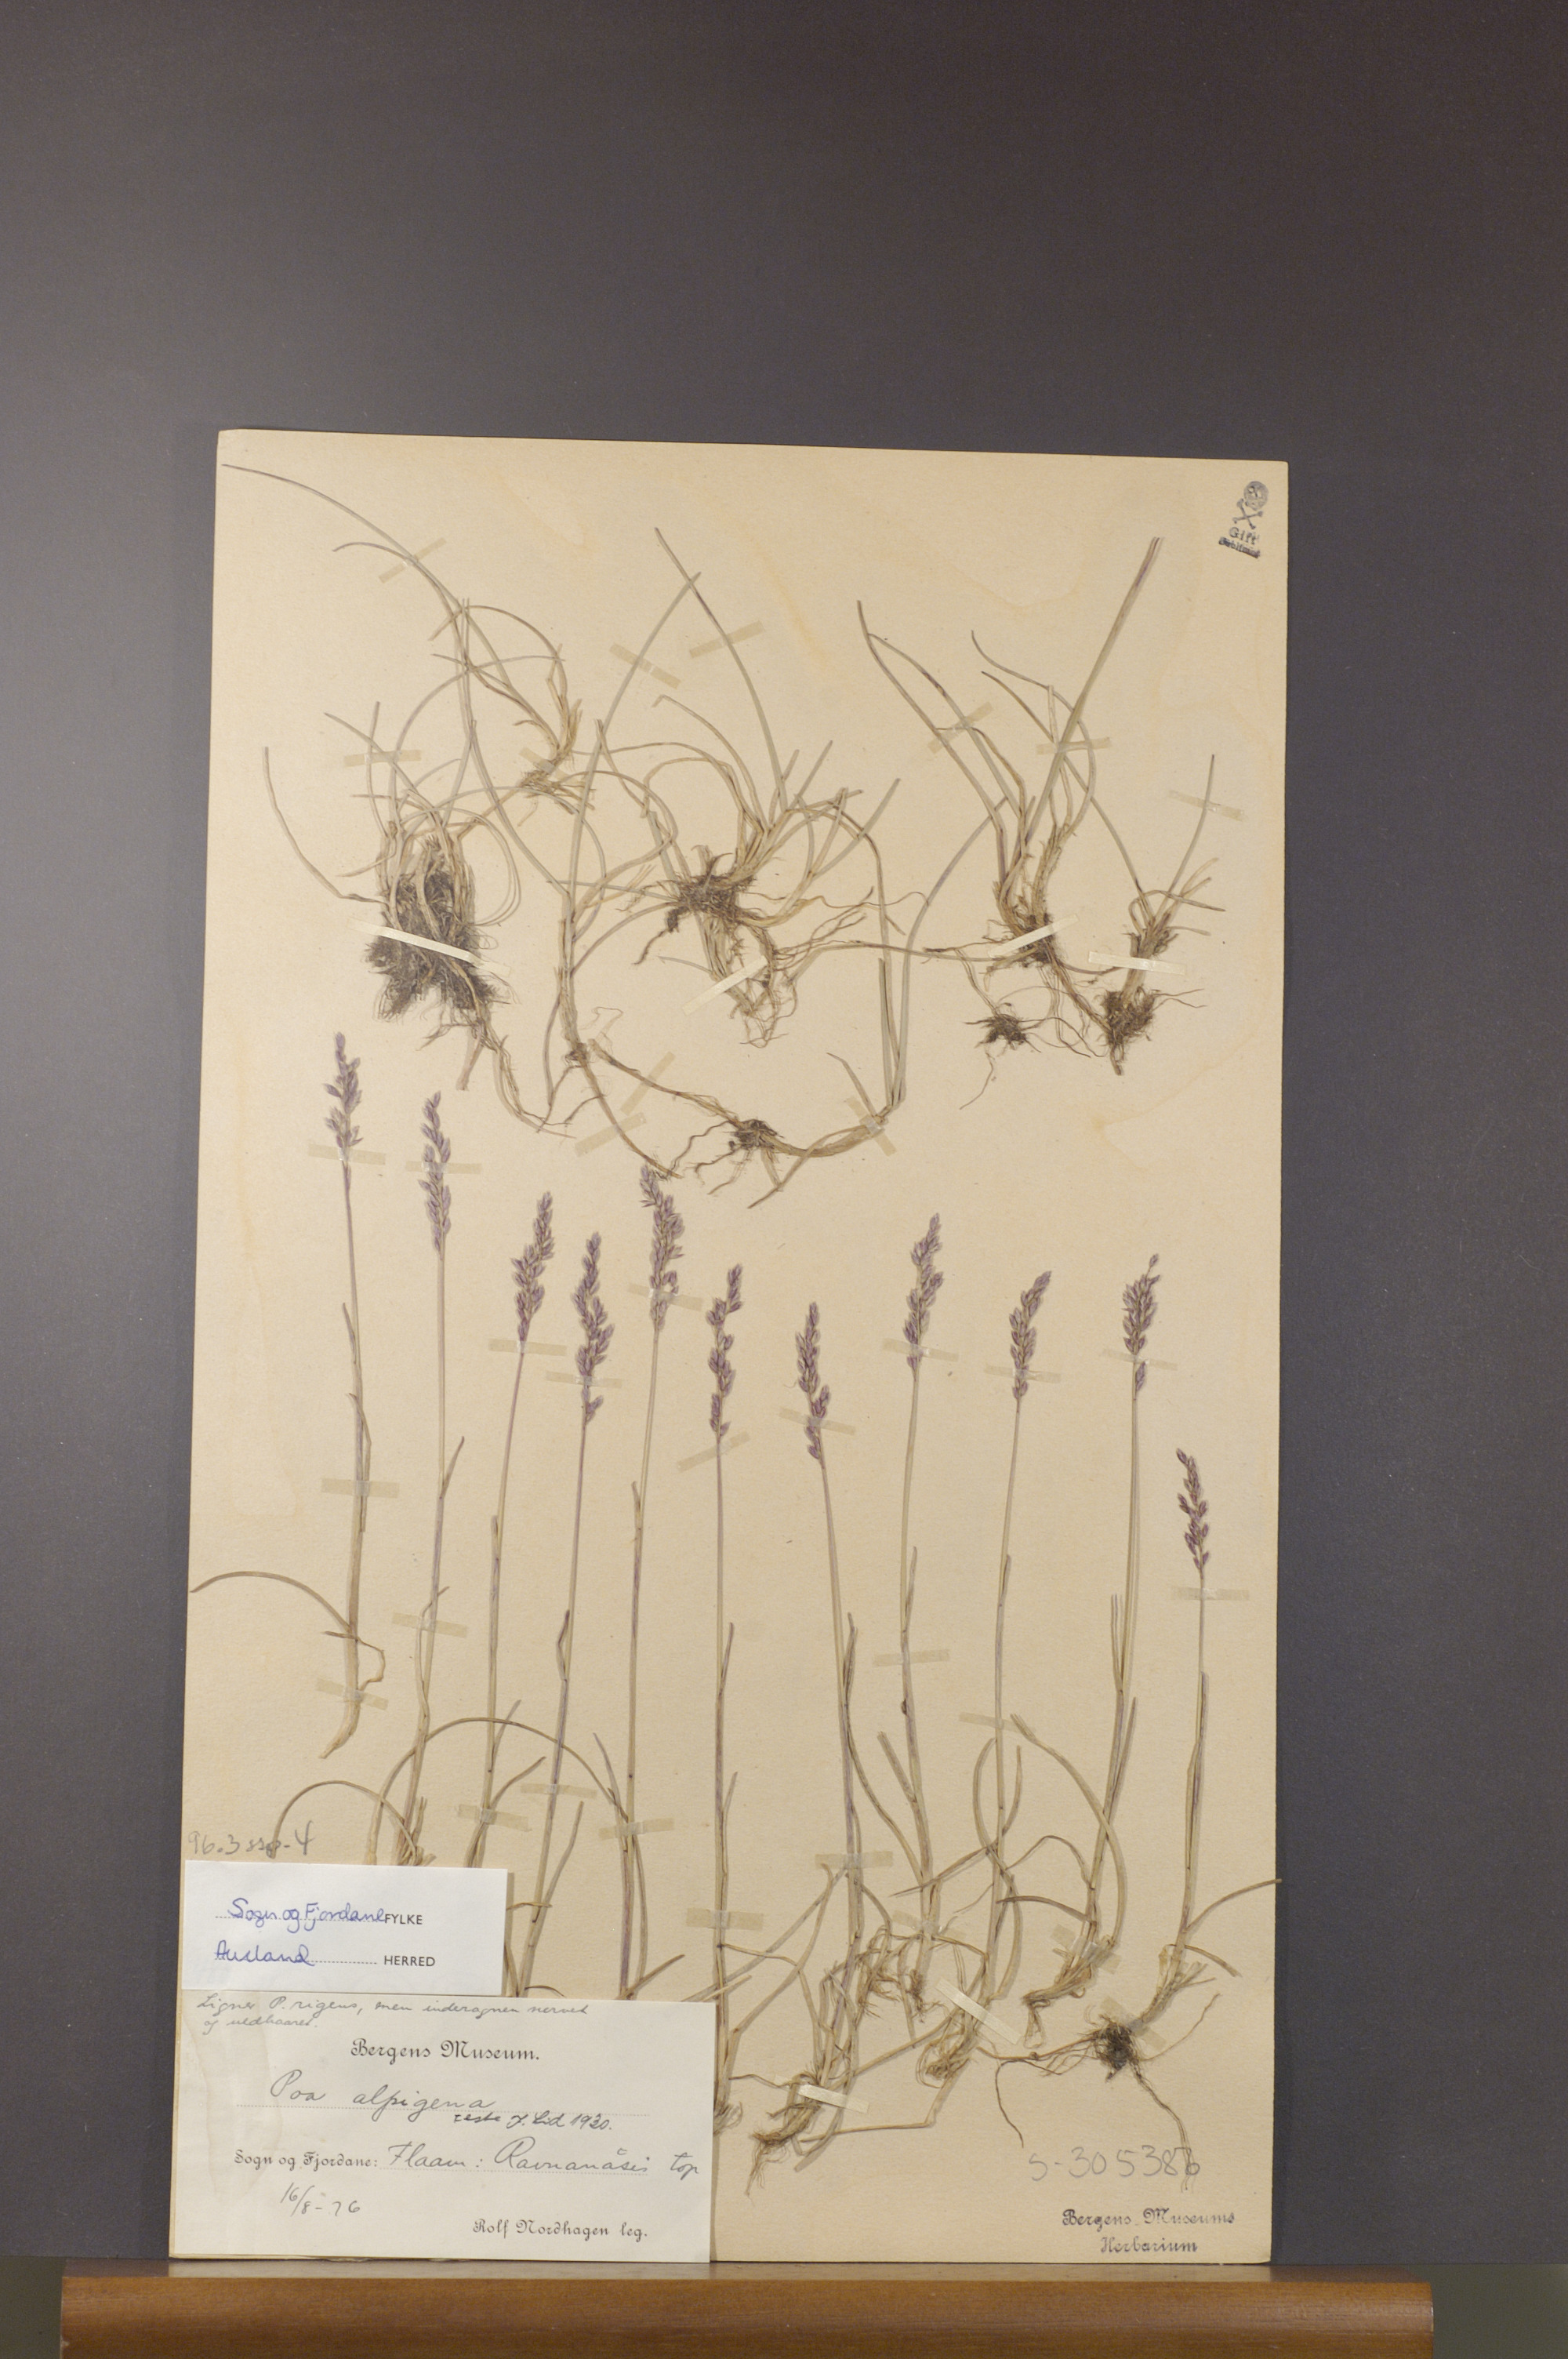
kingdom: Plantae
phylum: Tracheophyta
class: Liliopsida
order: Poales
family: Poaceae
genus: Poa
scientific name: Poa alpigena
